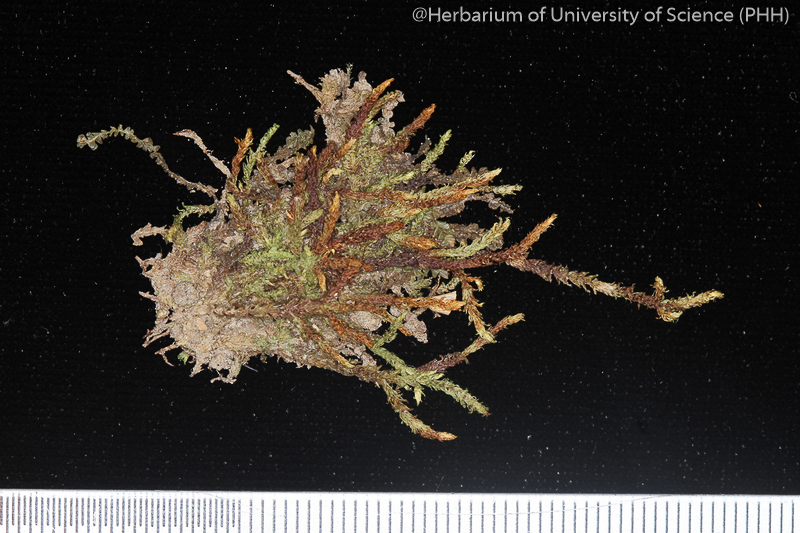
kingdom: Plantae
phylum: Bryophyta
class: Bryopsida
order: Hookeriales
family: Pilotrichaceae
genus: Callicostella
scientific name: Callicostella papillata
